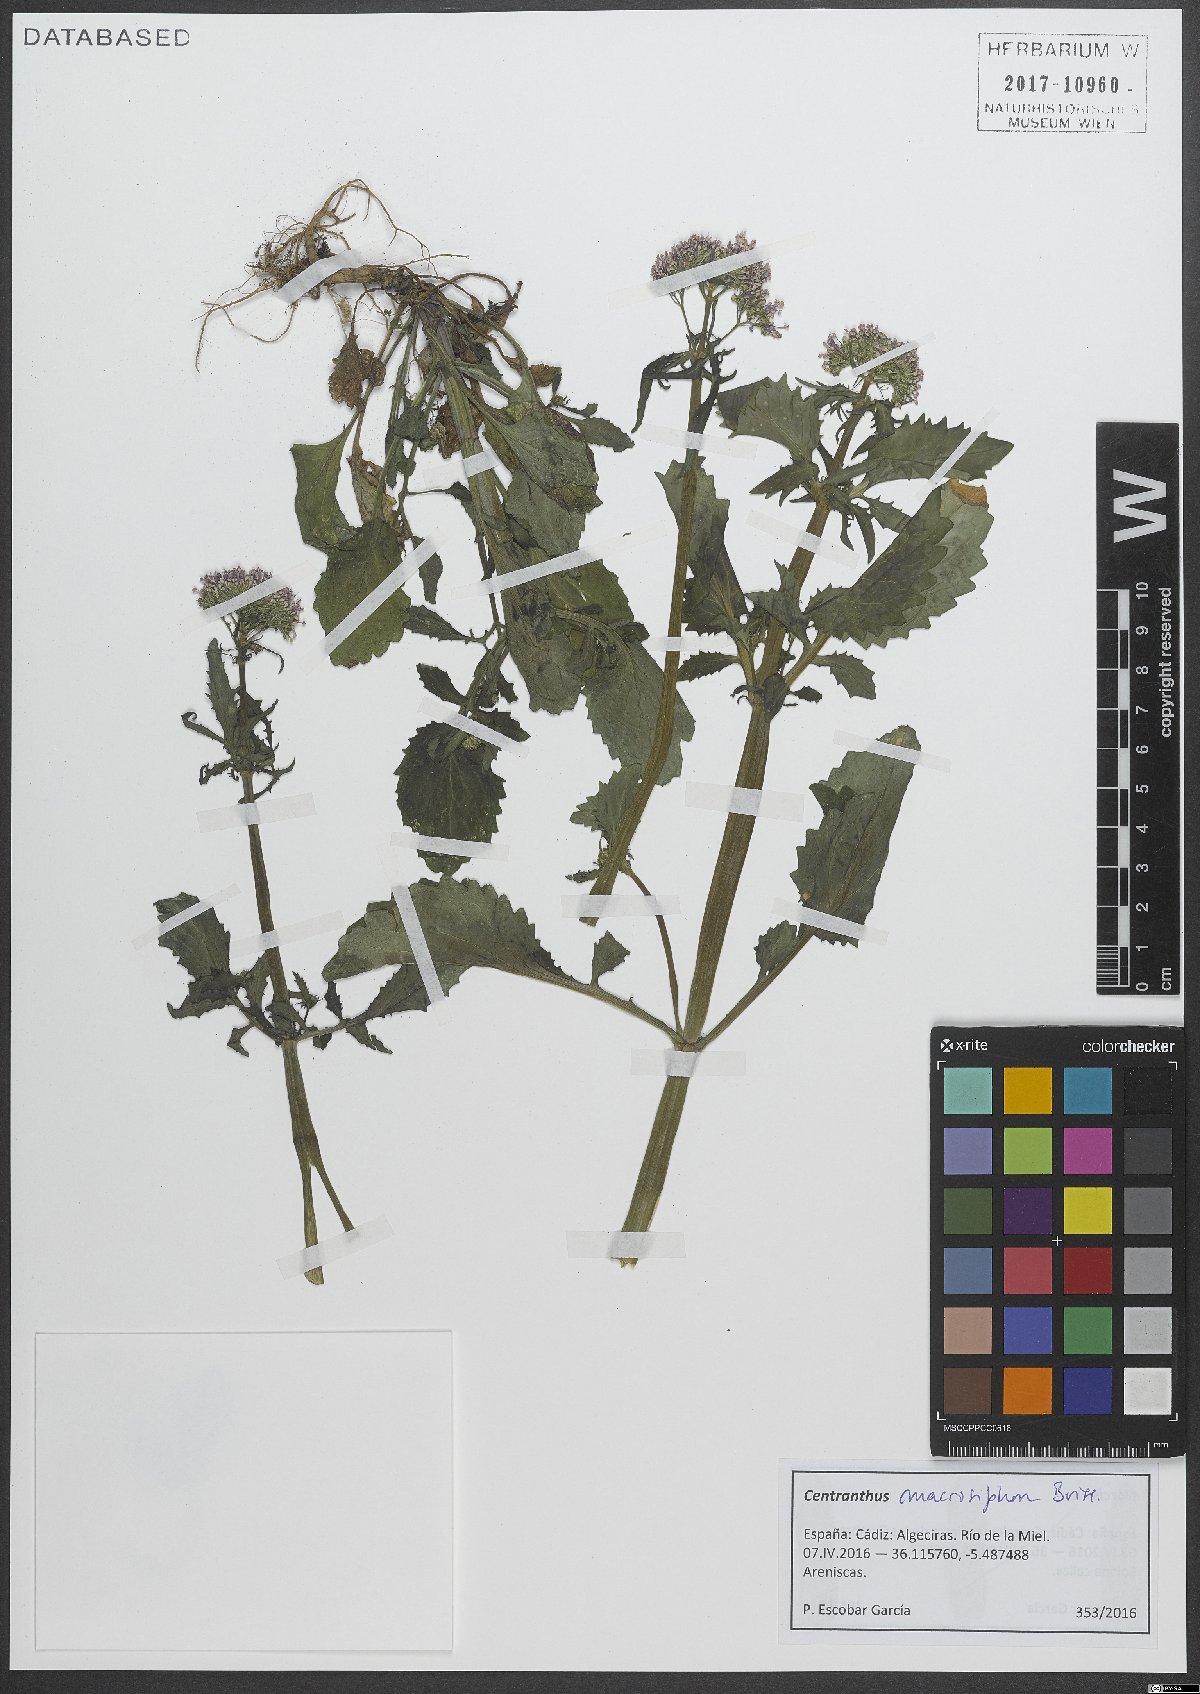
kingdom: Plantae
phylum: Tracheophyta
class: Magnoliopsida
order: Dipsacales
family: Caprifoliaceae
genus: Centranthus
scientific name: Centranthus macrosiphon
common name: Spanish-valerian
